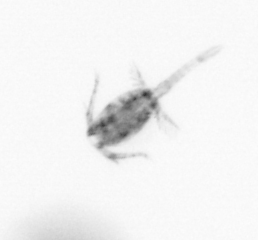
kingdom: Animalia
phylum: Arthropoda
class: Copepoda
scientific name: Copepoda
